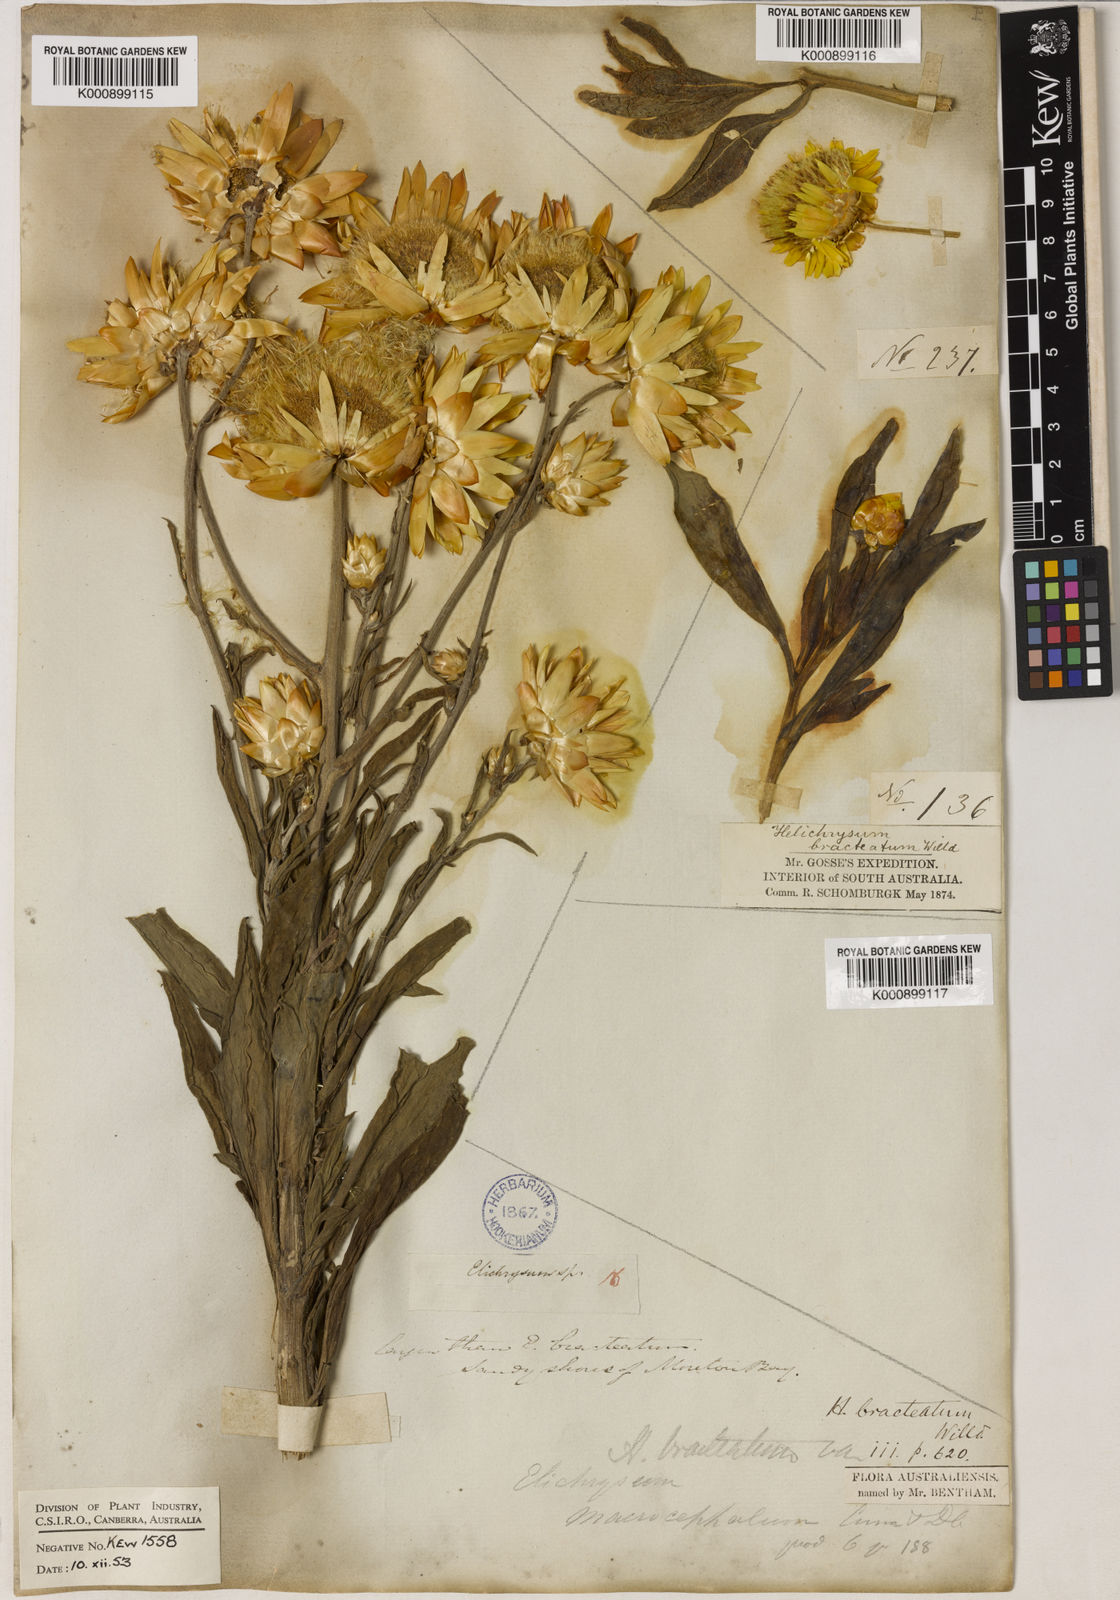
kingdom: Plantae
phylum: Tracheophyta
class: Magnoliopsida
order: Asterales
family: Asteraceae
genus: Xerochrysum
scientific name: Xerochrysum bracteatum
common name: Bracted strawflower
